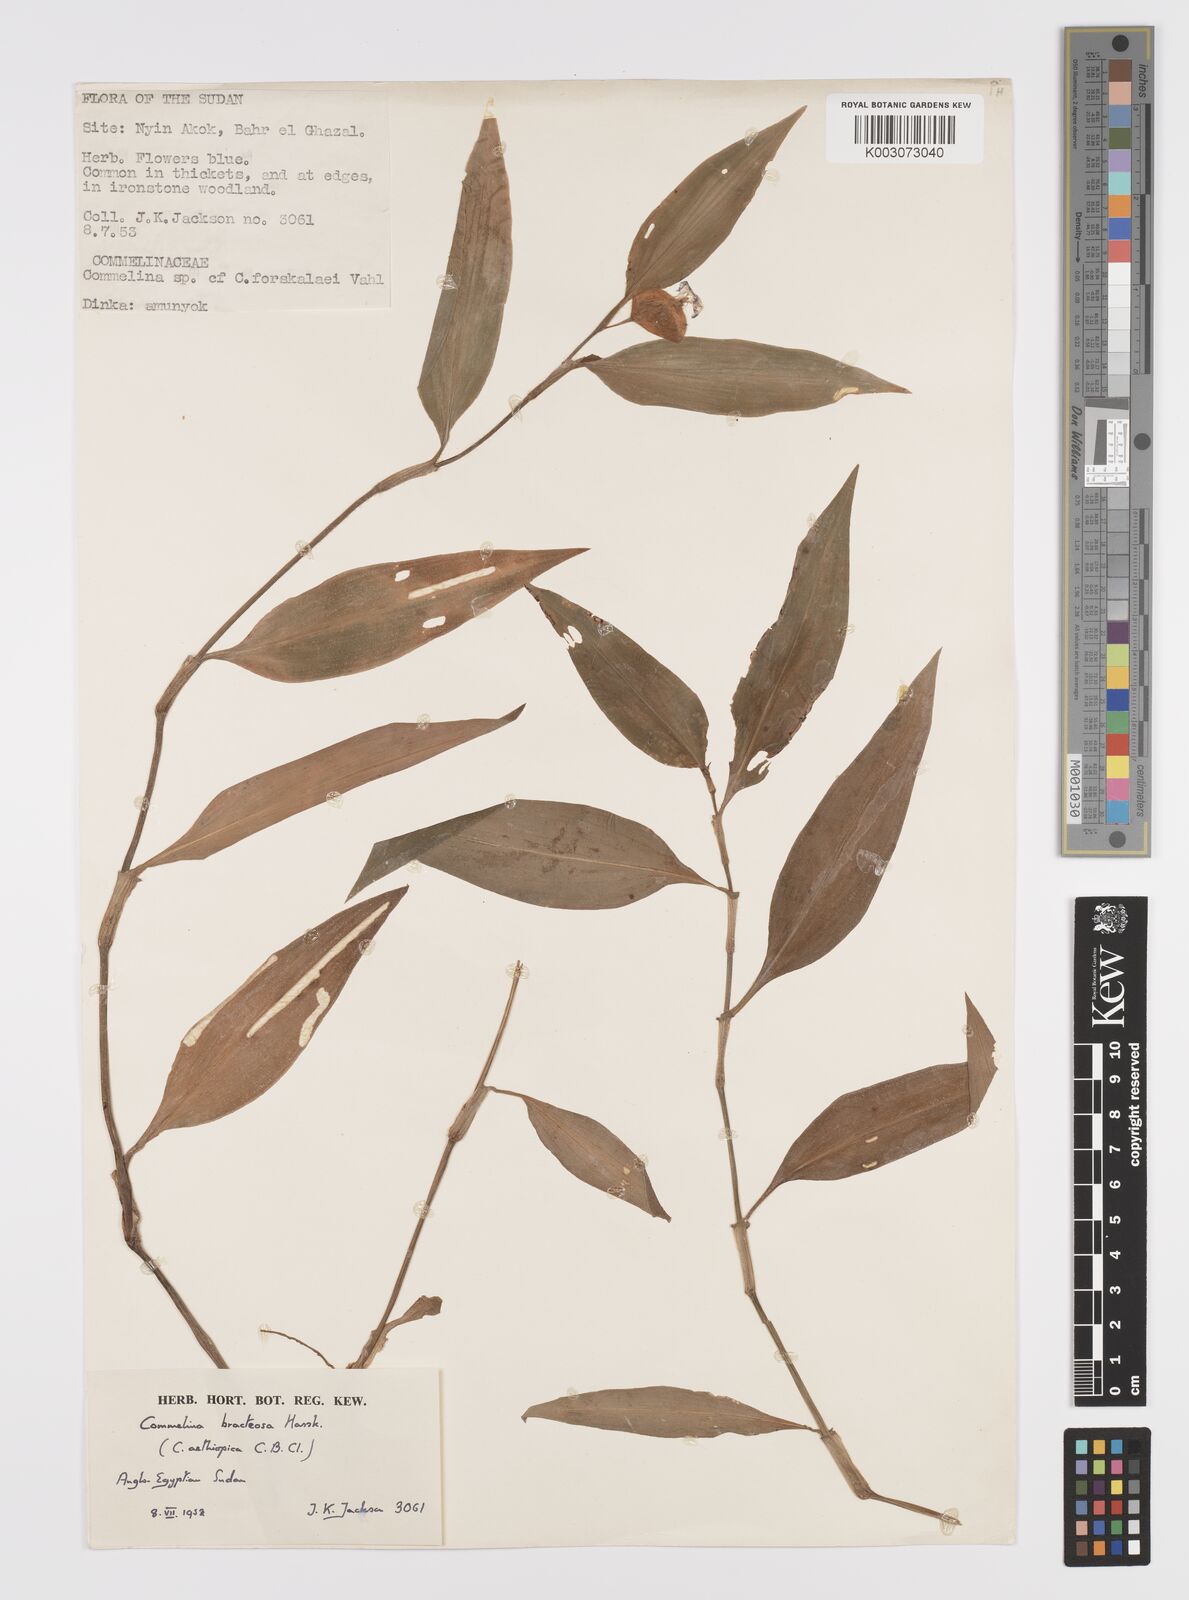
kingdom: Plantae
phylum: Tracheophyta
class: Liliopsida
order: Commelinales
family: Commelinaceae
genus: Commelina
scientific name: Commelina bracteosa
